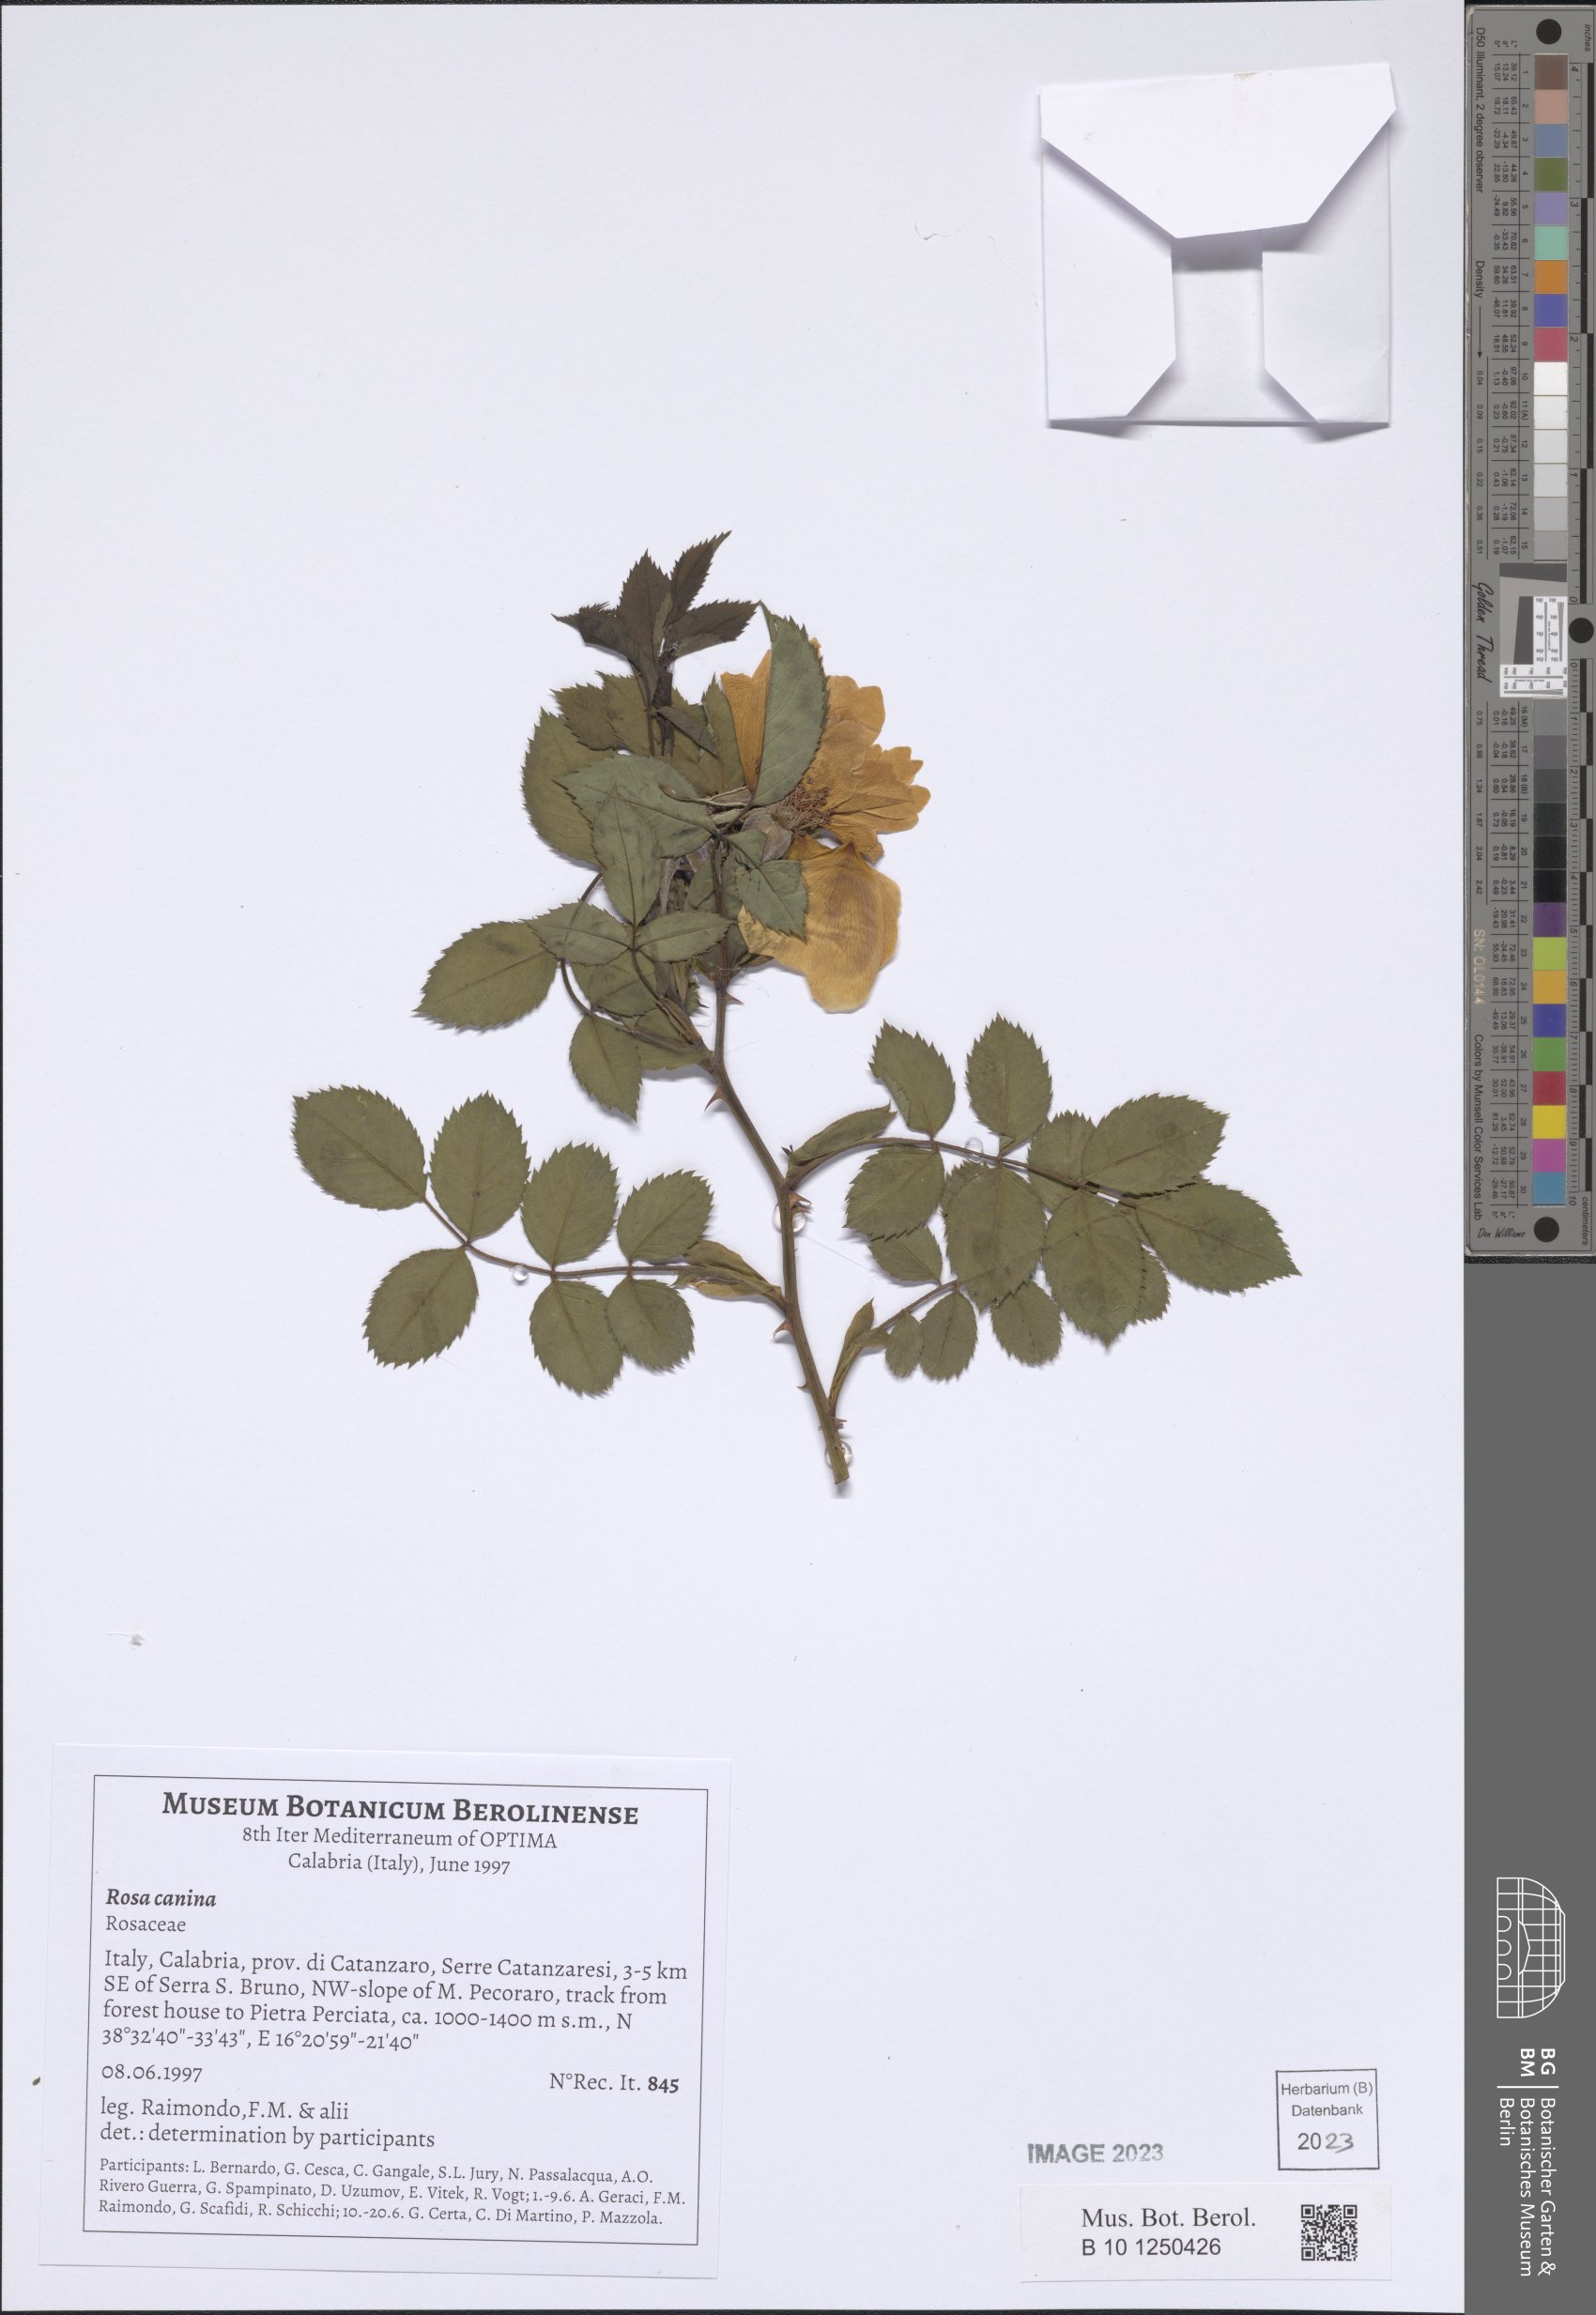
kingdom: Plantae
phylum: Tracheophyta
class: Magnoliopsida
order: Rosales
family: Rosaceae
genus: Rosa
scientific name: Rosa canina
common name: Dog rose
